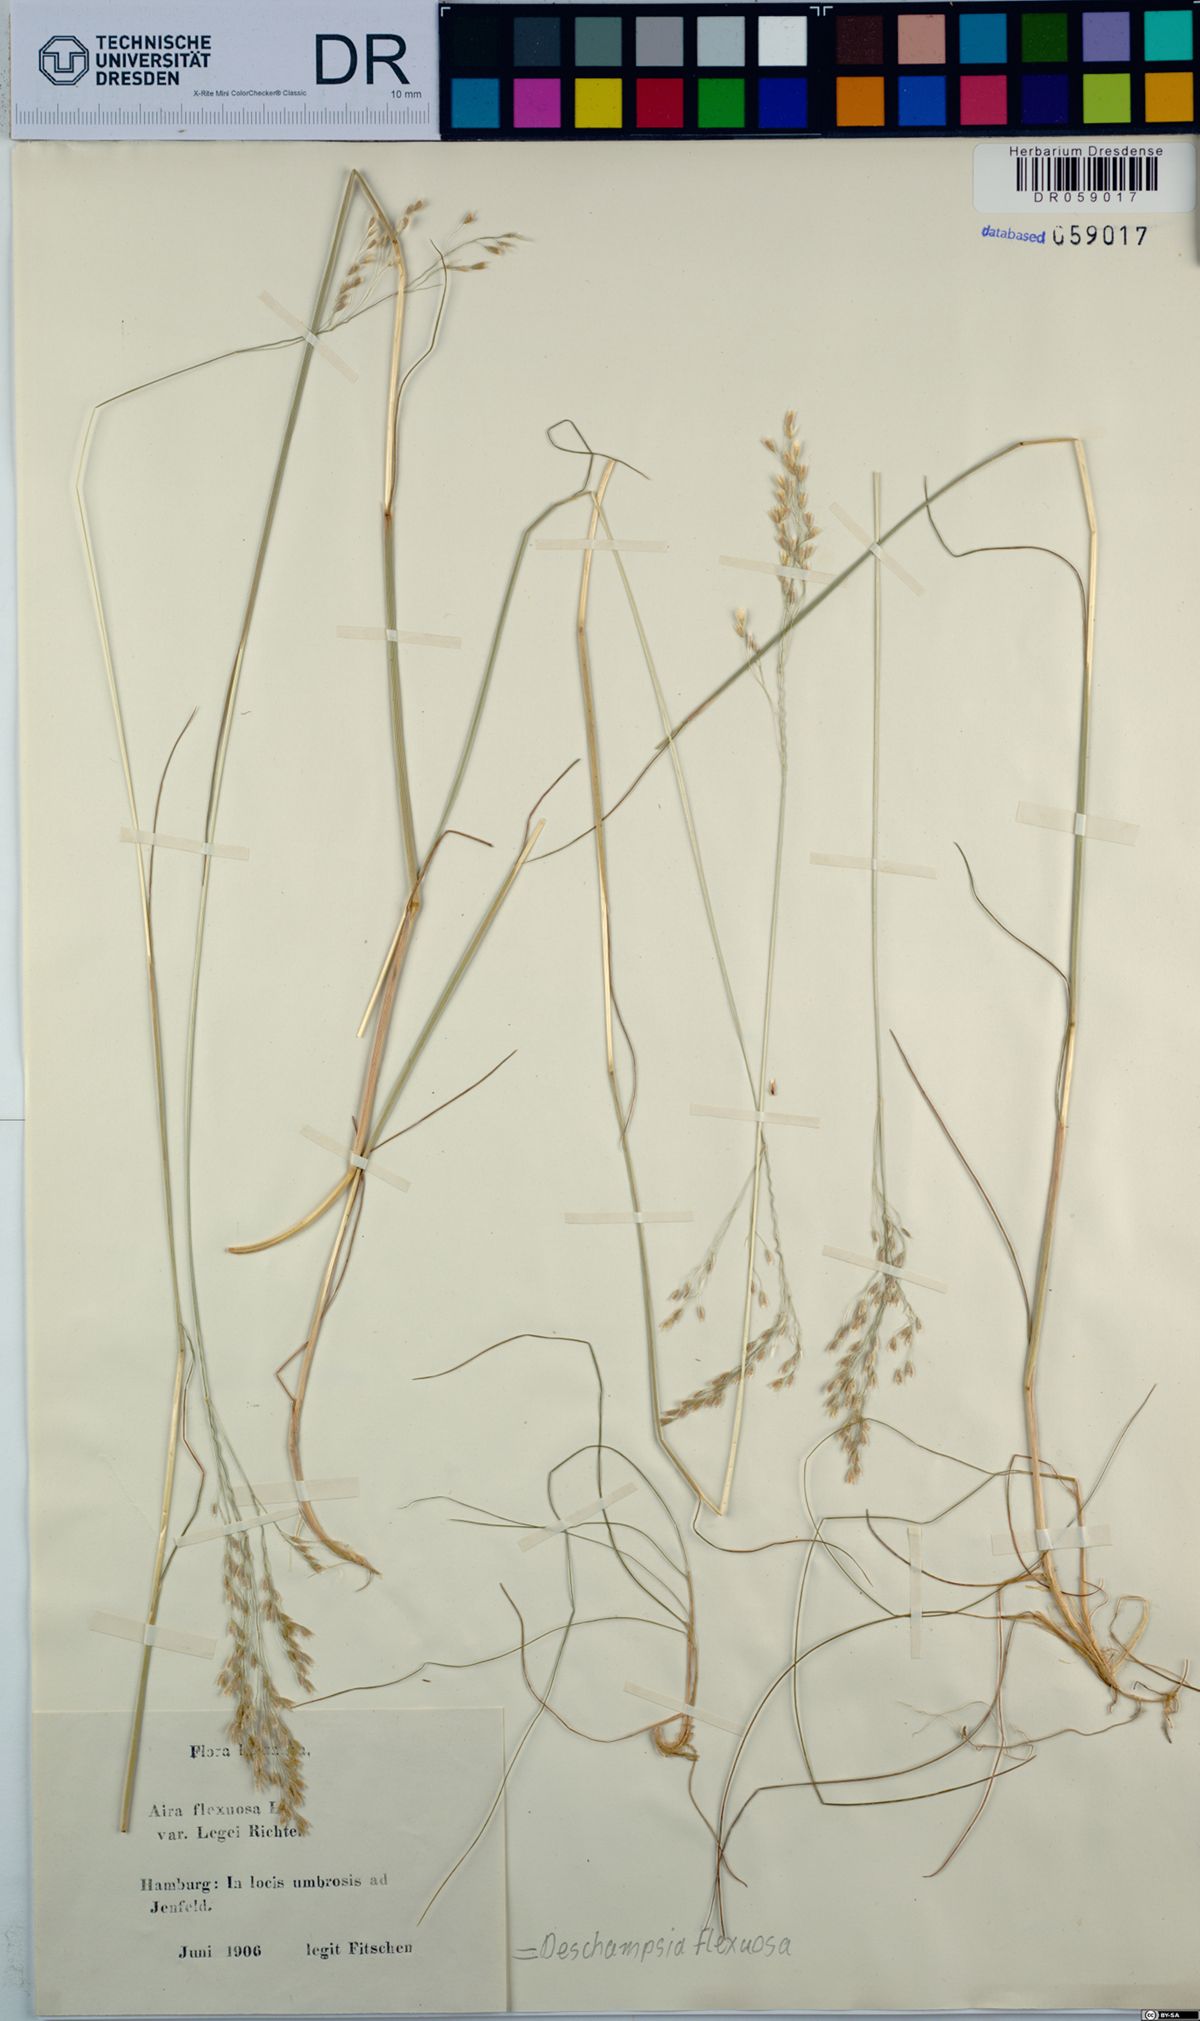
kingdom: Plantae
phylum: Tracheophyta
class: Liliopsida
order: Poales
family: Poaceae
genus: Avenella
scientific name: Avenella flexuosa
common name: Wavy hairgrass
